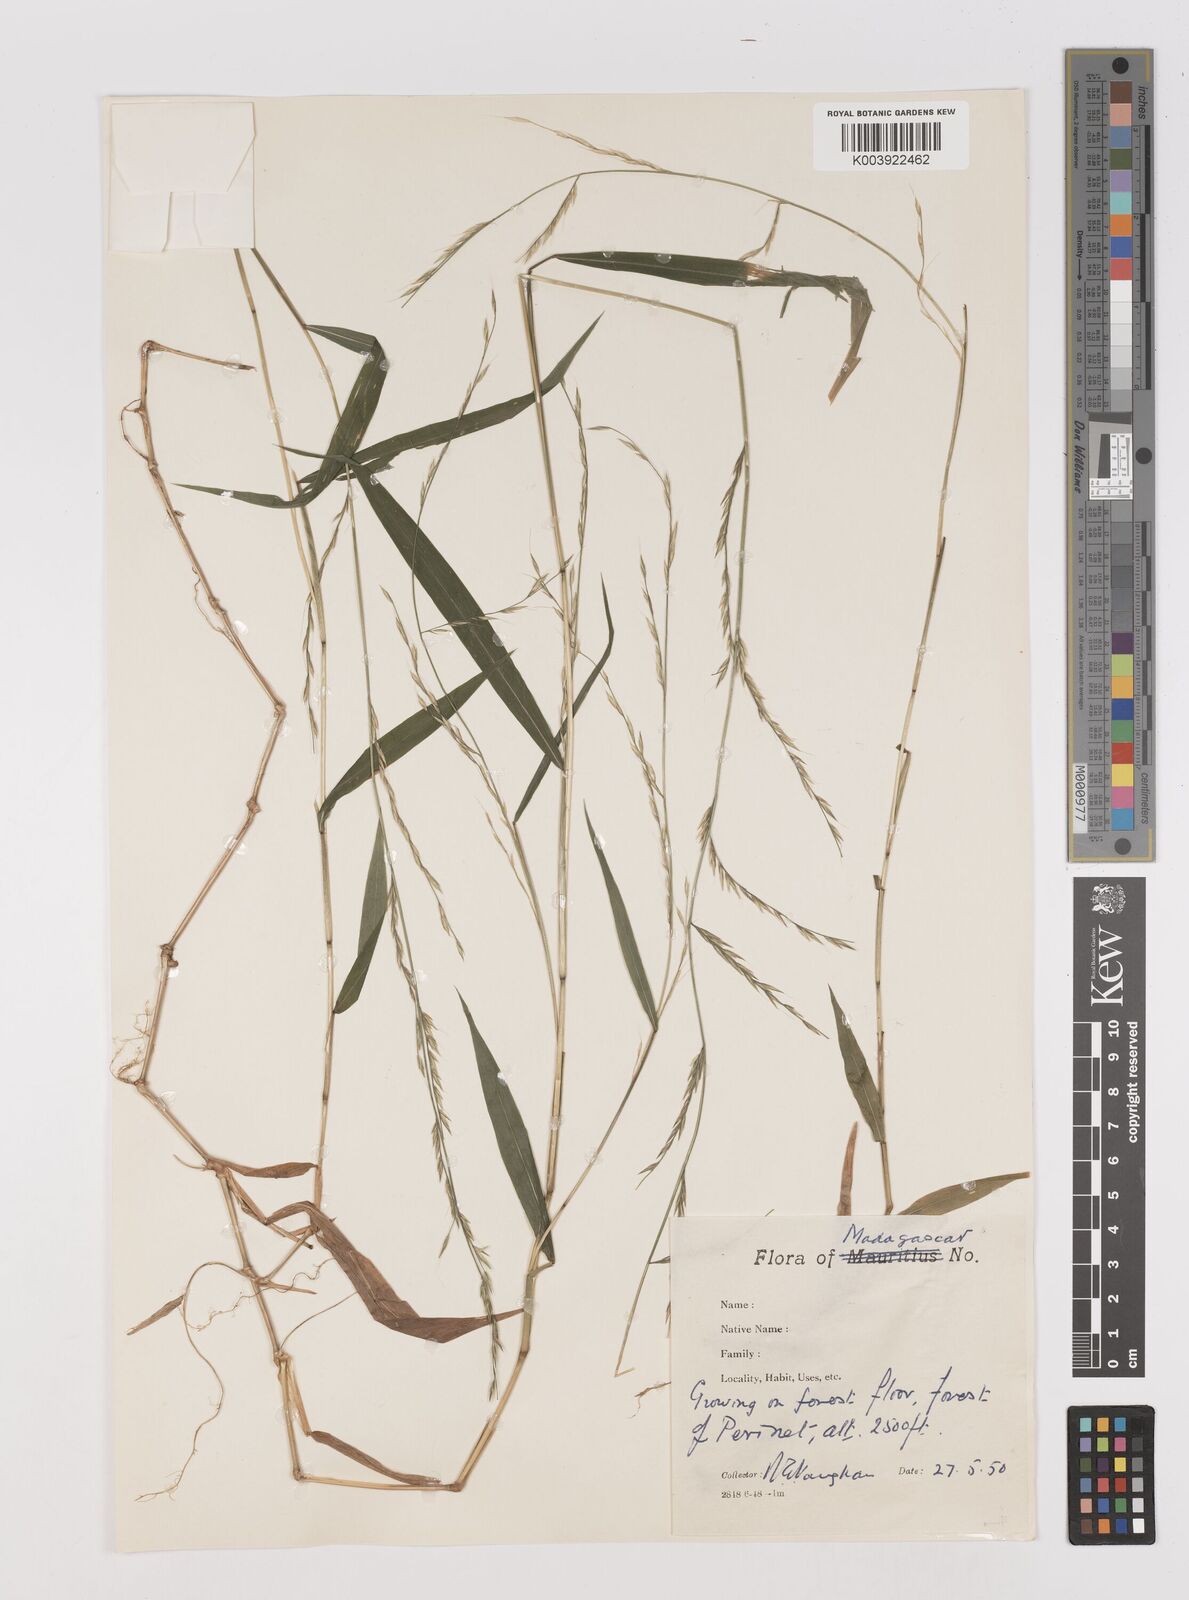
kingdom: Plantae
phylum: Tracheophyta
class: Liliopsida
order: Poales
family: Poaceae
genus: Poecilostachys
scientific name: Poecilostachys baronis
